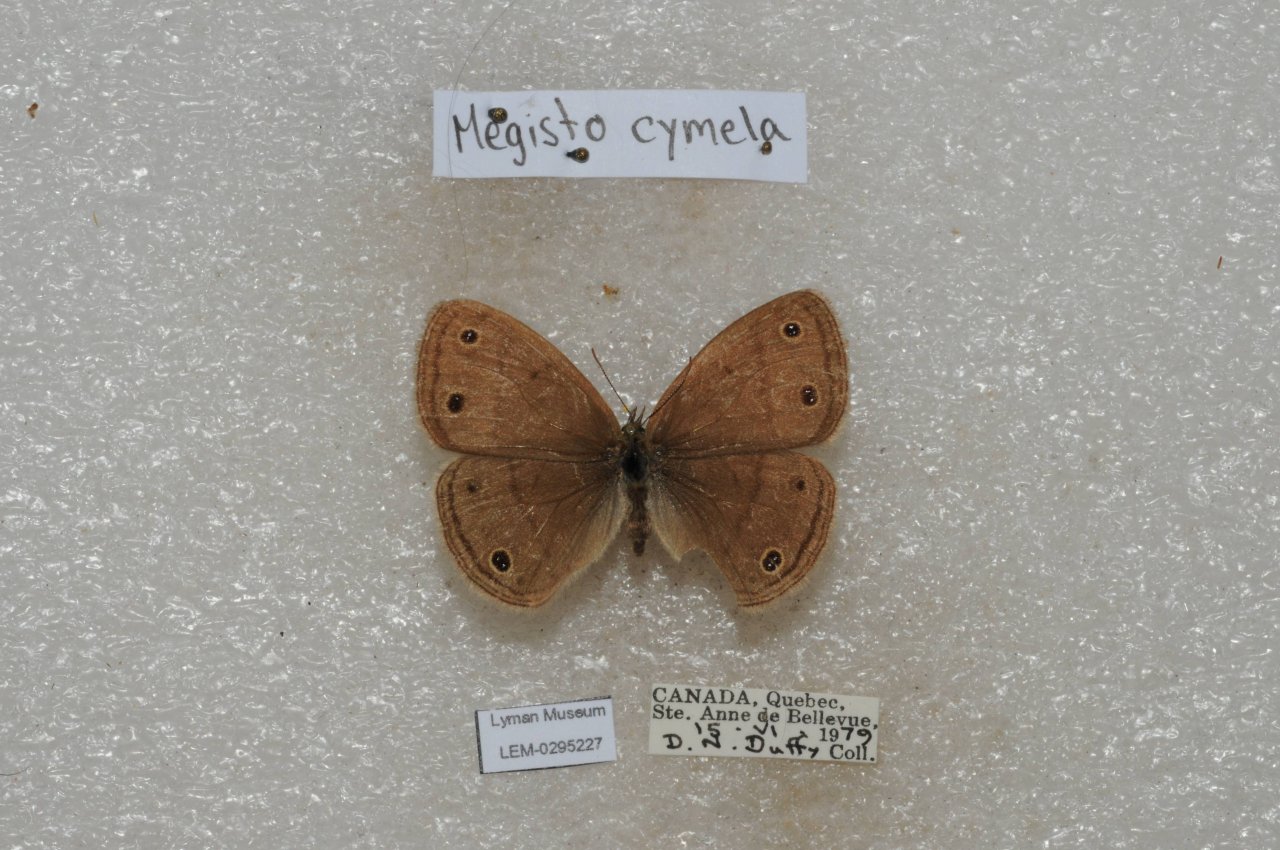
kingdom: Animalia
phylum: Arthropoda
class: Insecta
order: Lepidoptera
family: Nymphalidae
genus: Euptychia
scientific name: Euptychia cymela
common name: Little Wood Satyr
